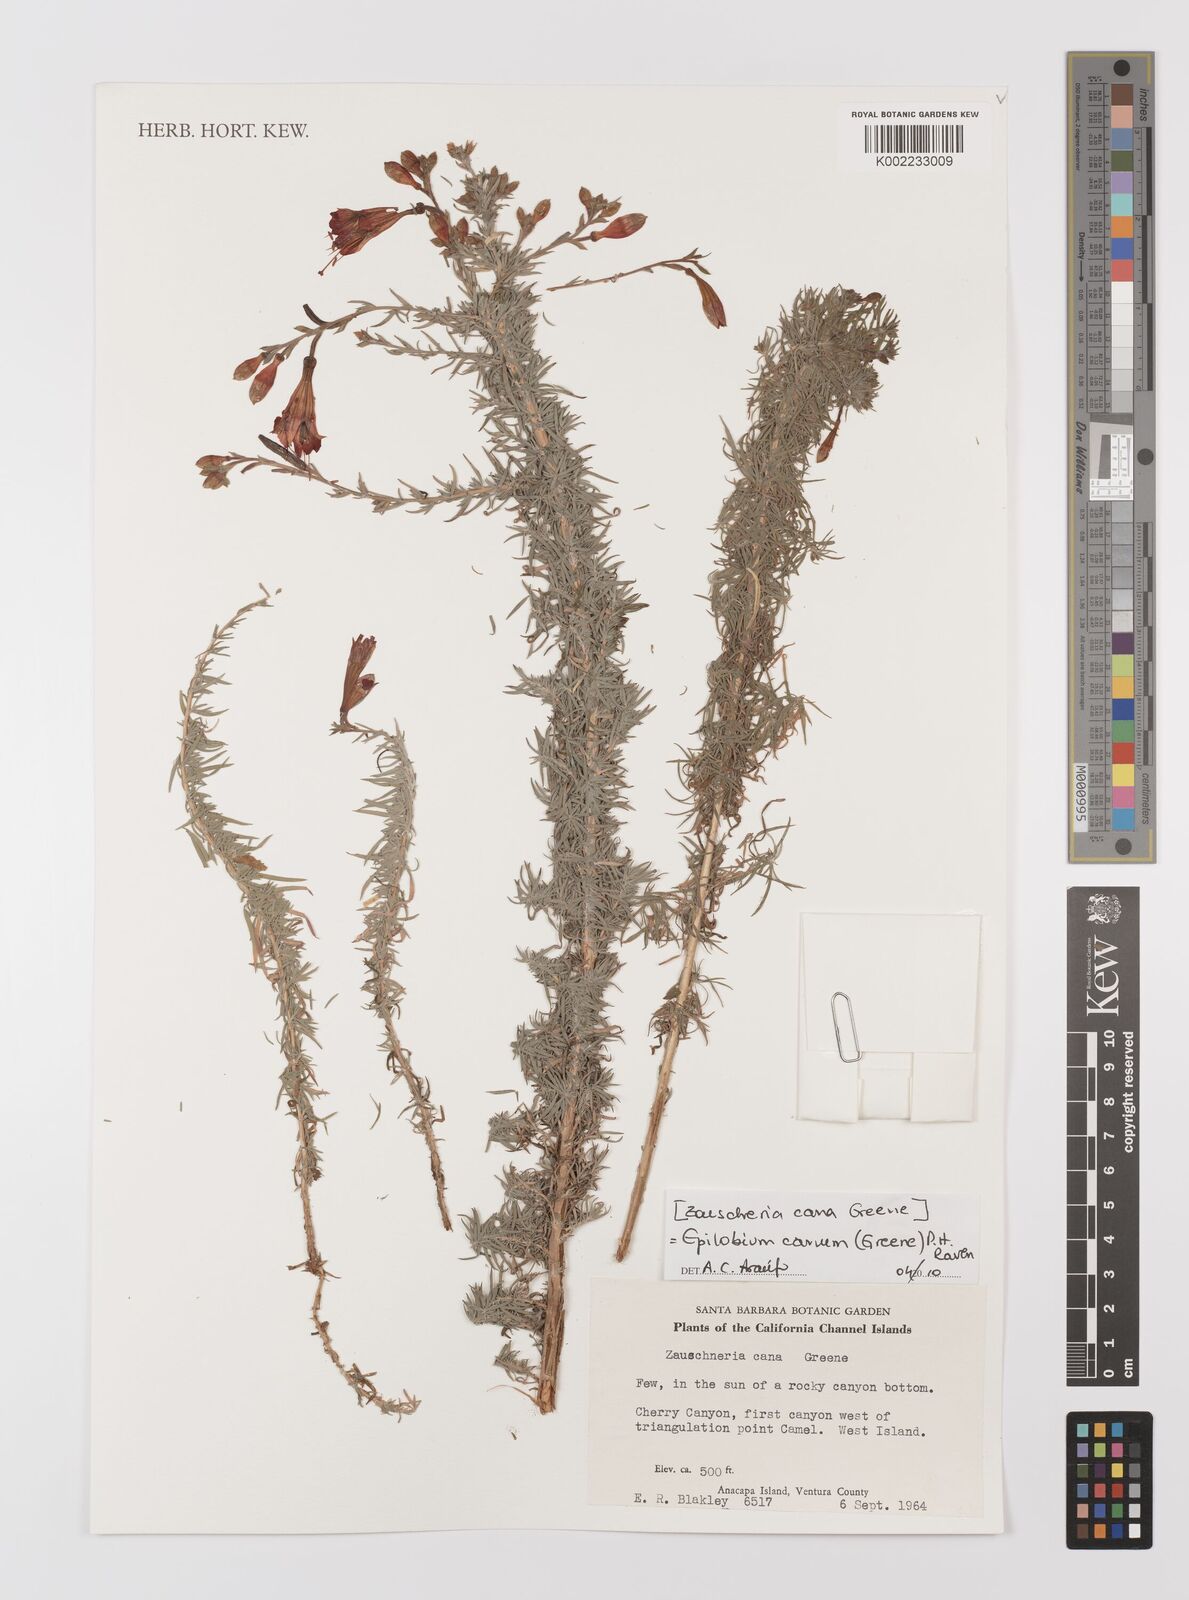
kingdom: Plantae
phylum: Tracheophyta
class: Magnoliopsida
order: Myrtales
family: Onagraceae
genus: Epilobium
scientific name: Epilobium canum
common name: California-fuchsia
